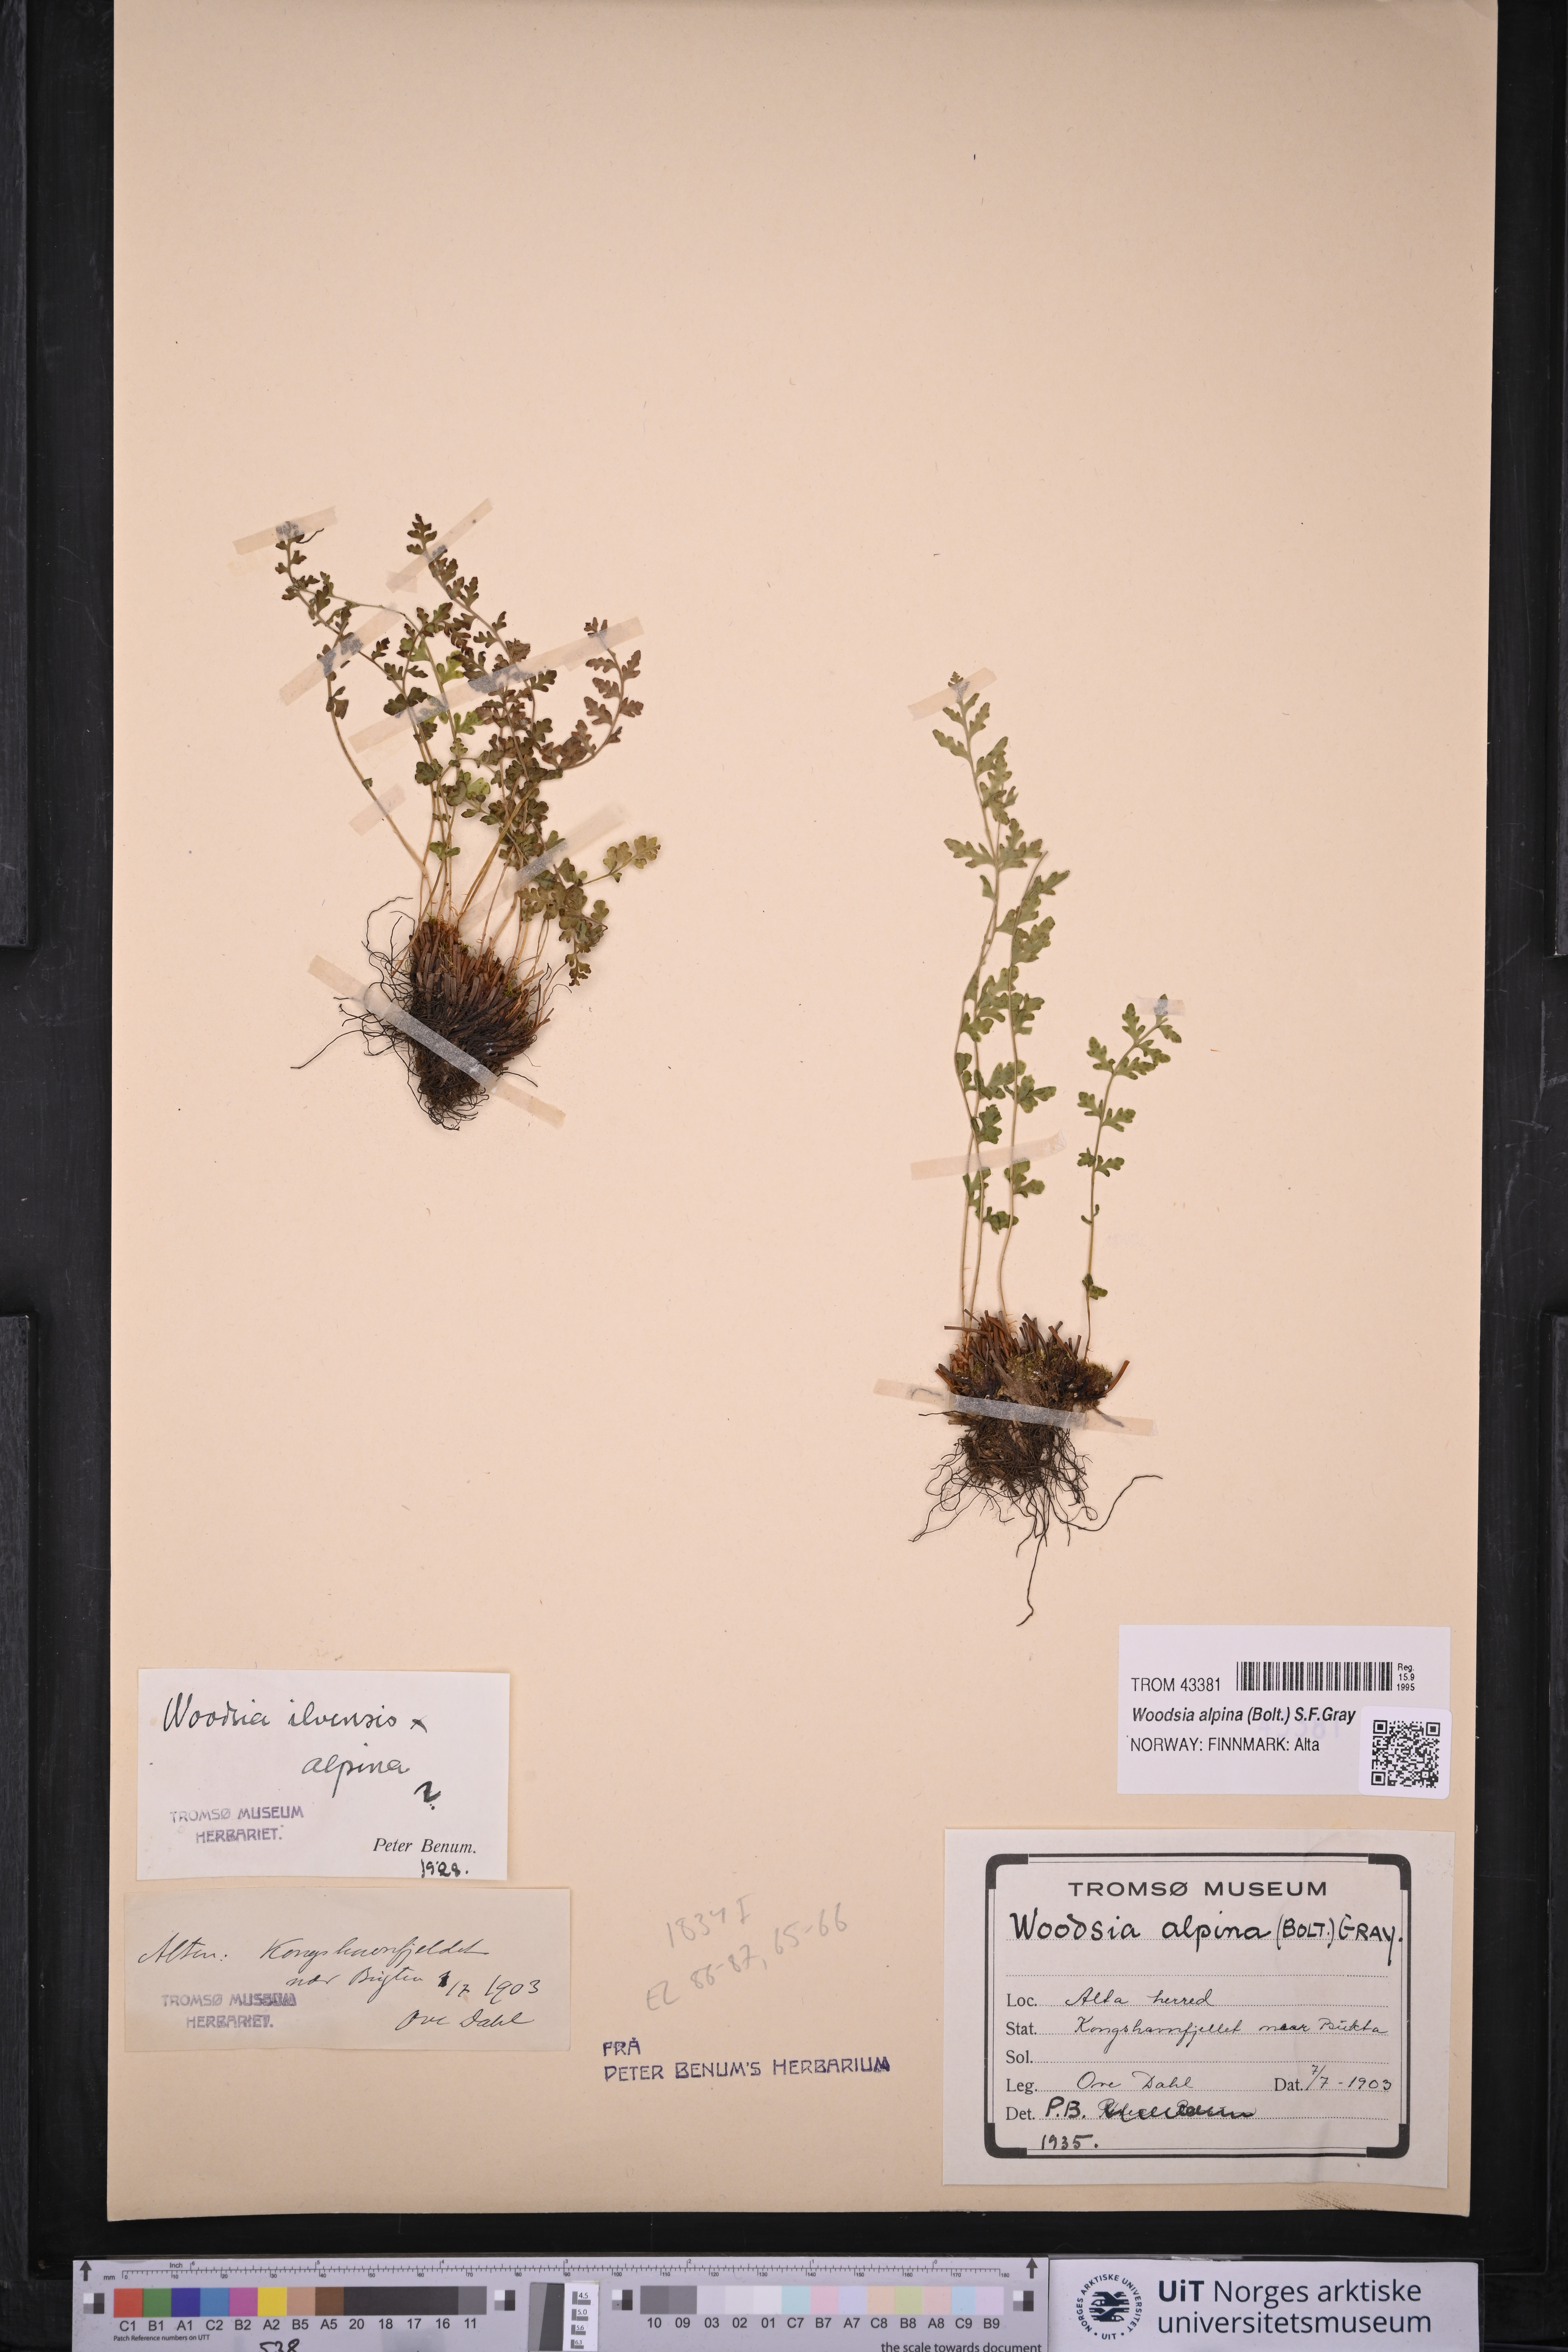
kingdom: Plantae
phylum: Tracheophyta
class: Polypodiopsida
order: Polypodiales
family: Woodsiaceae
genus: Woodsia
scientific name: Woodsia alpina
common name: Alpine woodsia
